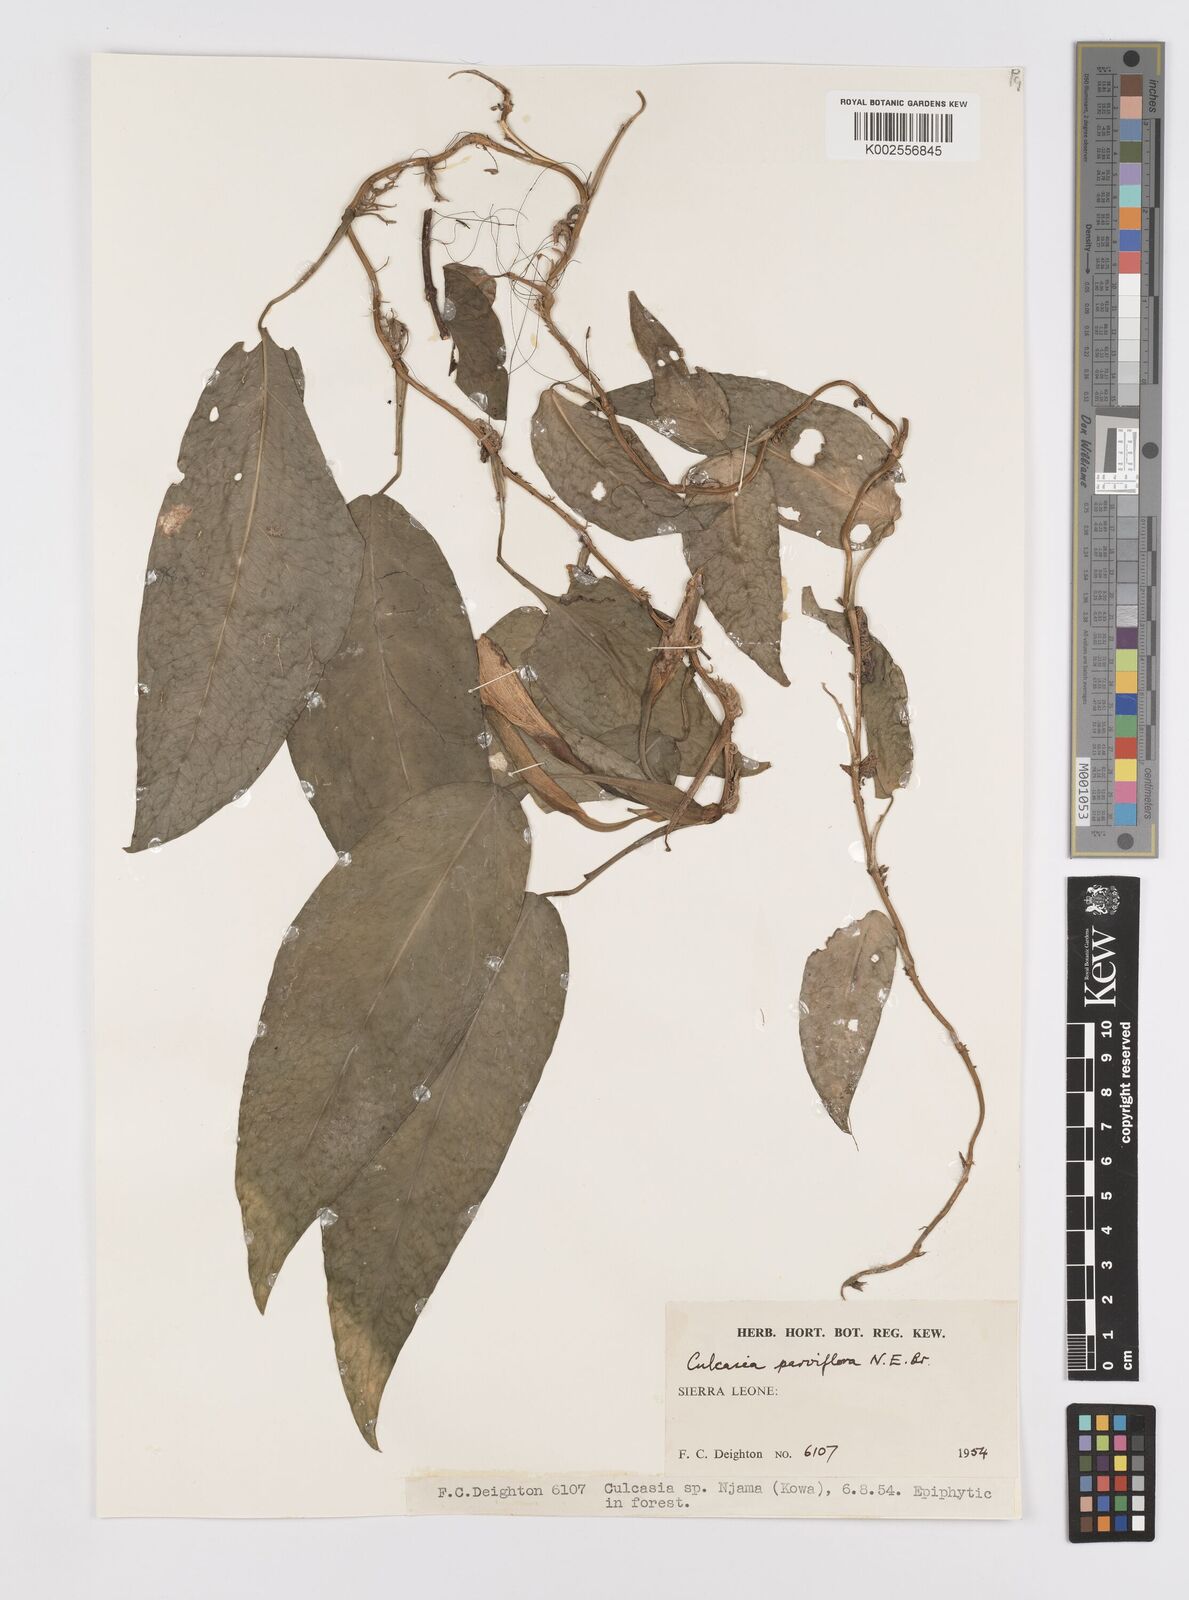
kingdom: Plantae
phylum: Tracheophyta
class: Liliopsida
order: Alismatales
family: Araceae
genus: Culcasia
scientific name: Culcasia parviflora
